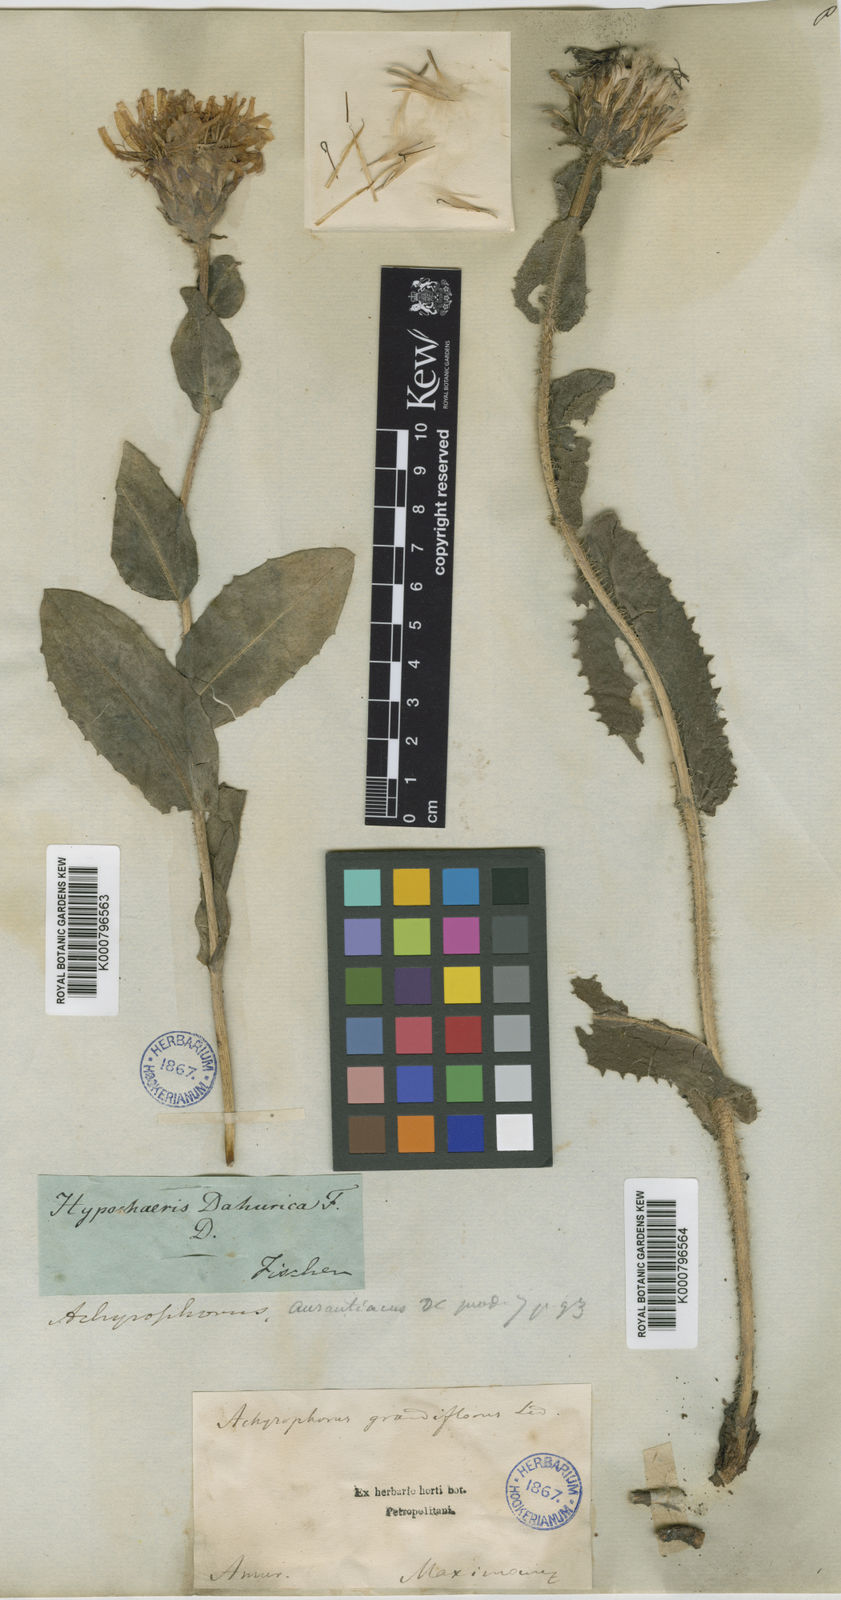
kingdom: Plantae
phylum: Tracheophyta
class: Magnoliopsida
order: Asterales
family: Asteraceae
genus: Trommsdorffia
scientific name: Trommsdorffia ciliata
